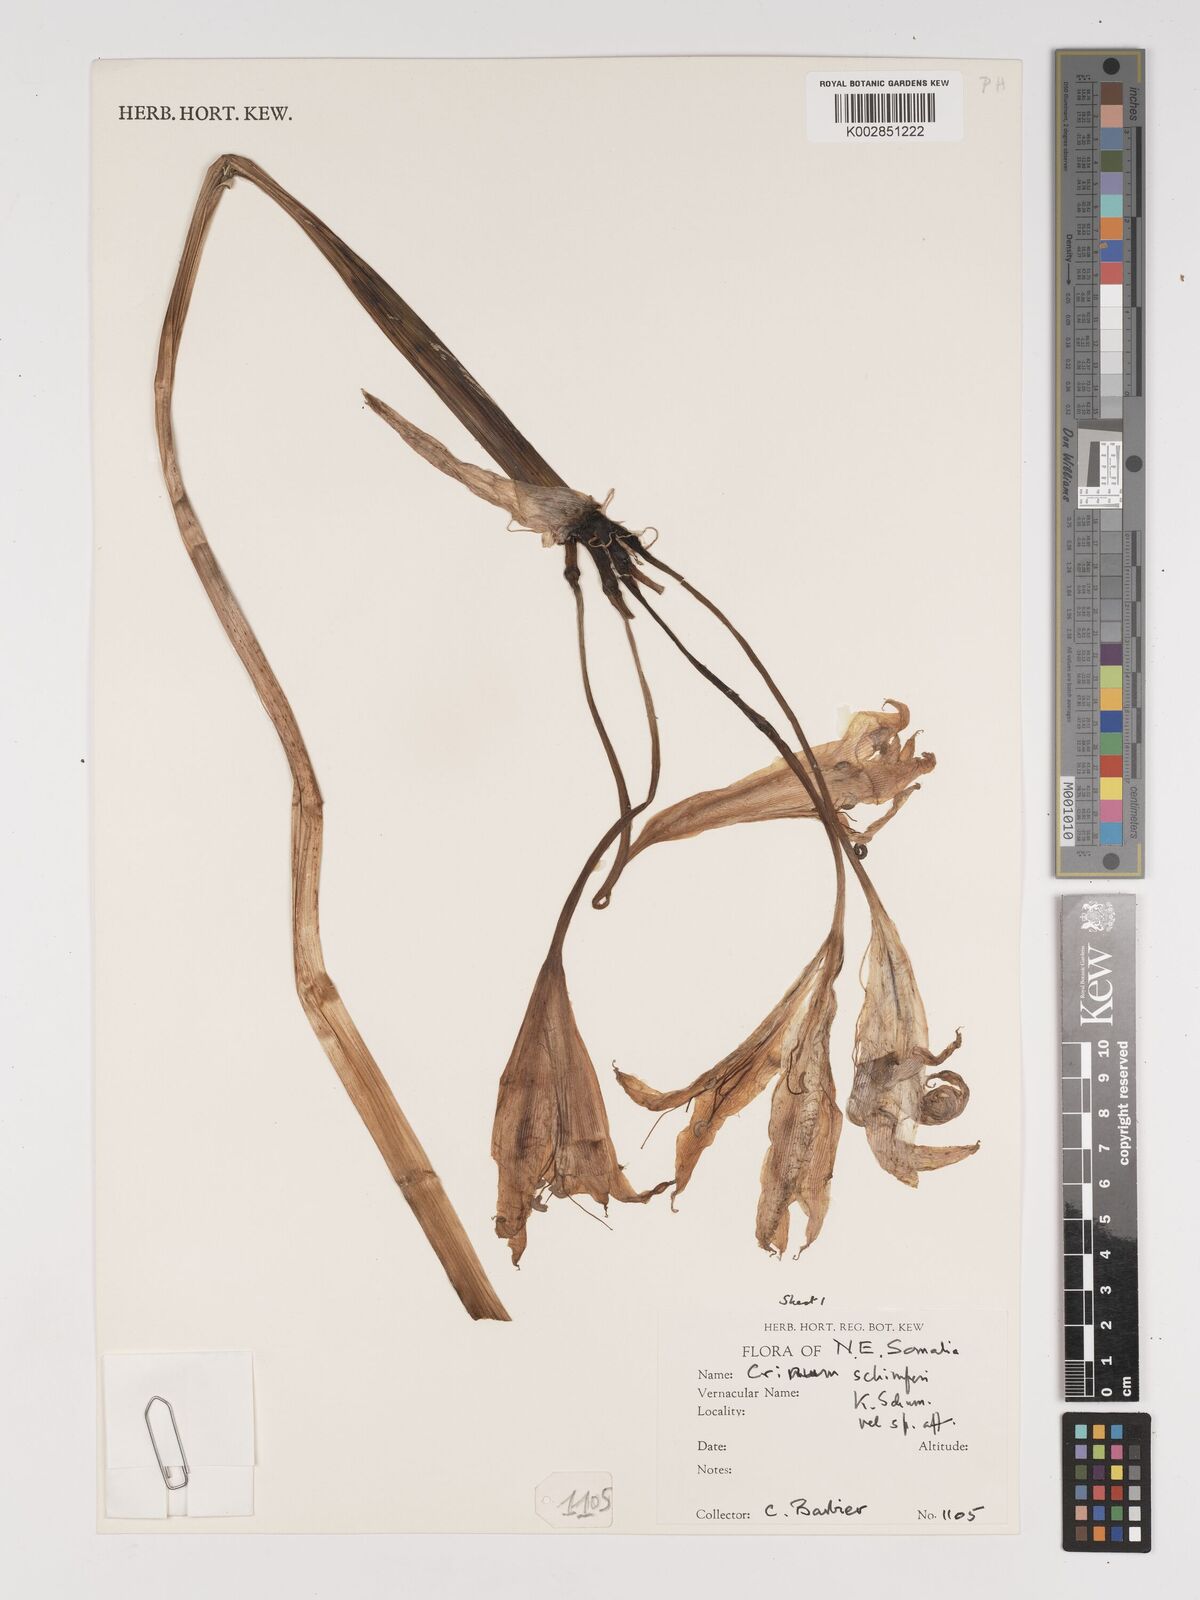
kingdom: Plantae
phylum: Tracheophyta
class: Liliopsida
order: Asparagales
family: Amaryllidaceae
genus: Crinum
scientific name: Crinum abyssinicum
